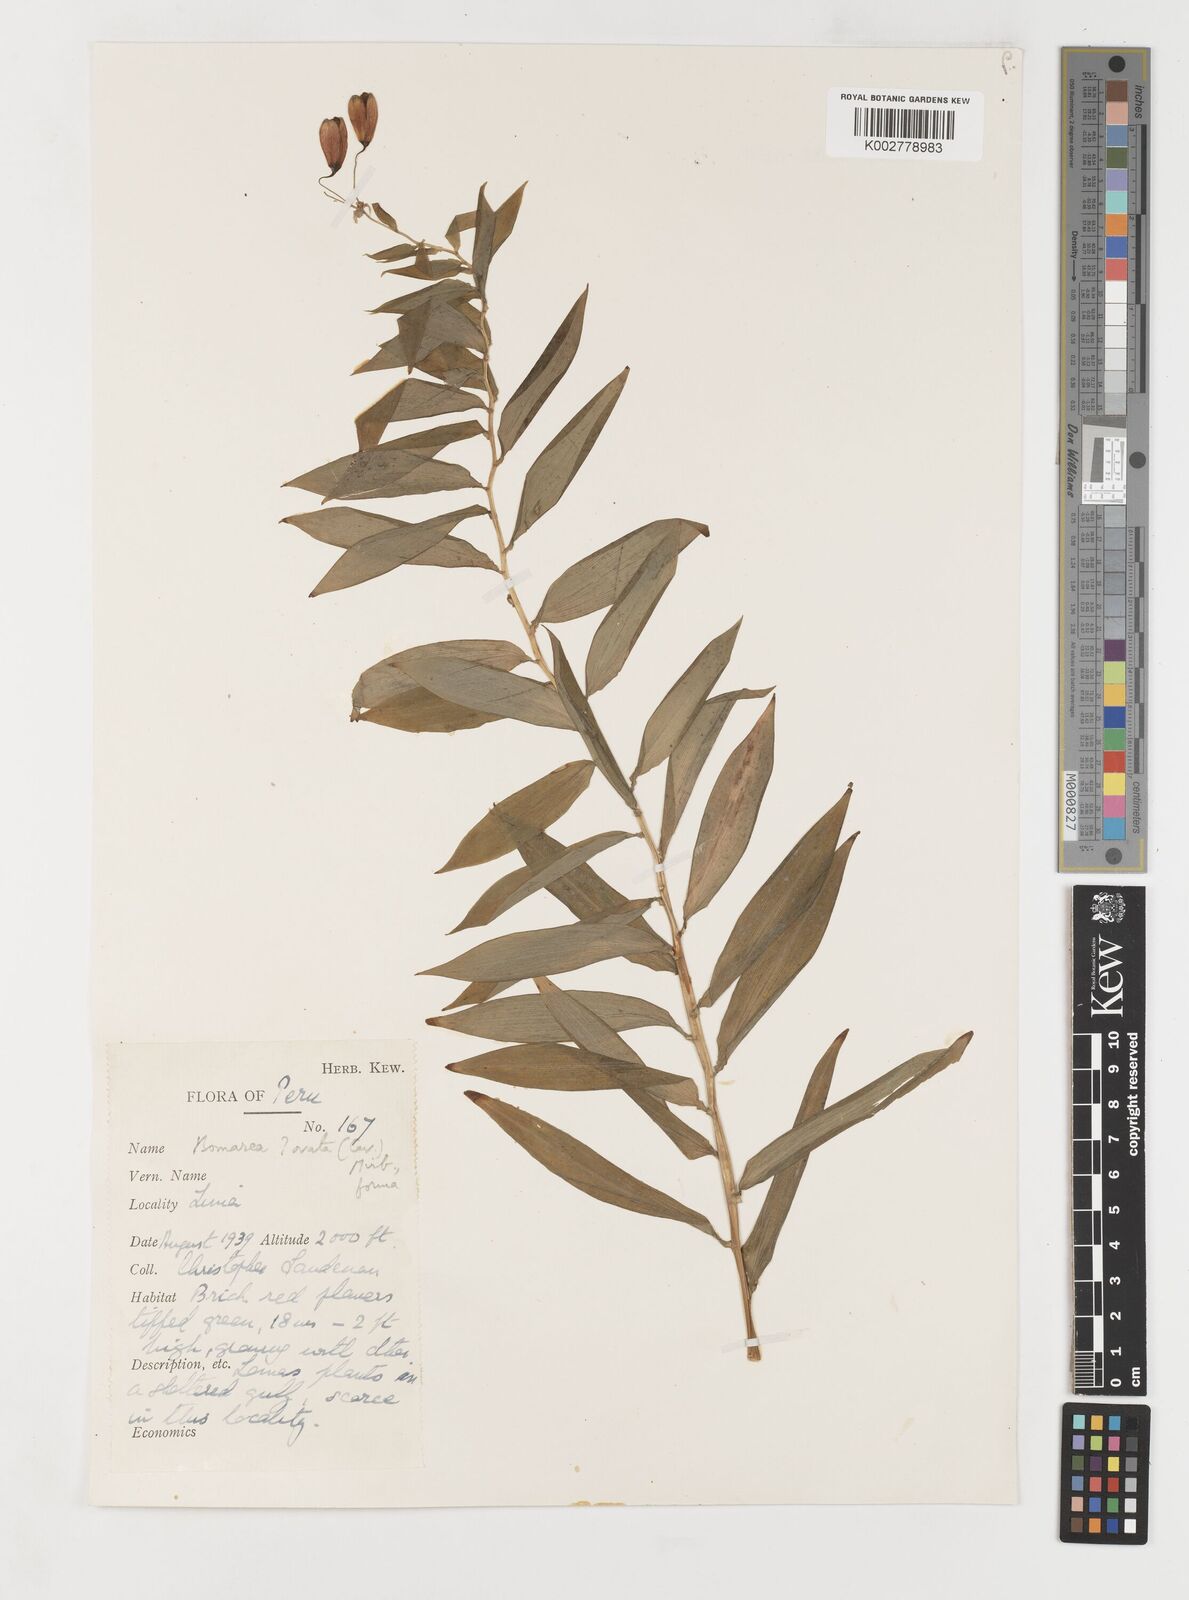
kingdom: Plantae
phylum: Tracheophyta
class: Liliopsida
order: Liliales
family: Alstroemeriaceae
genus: Bomarea
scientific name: Bomarea ovata
